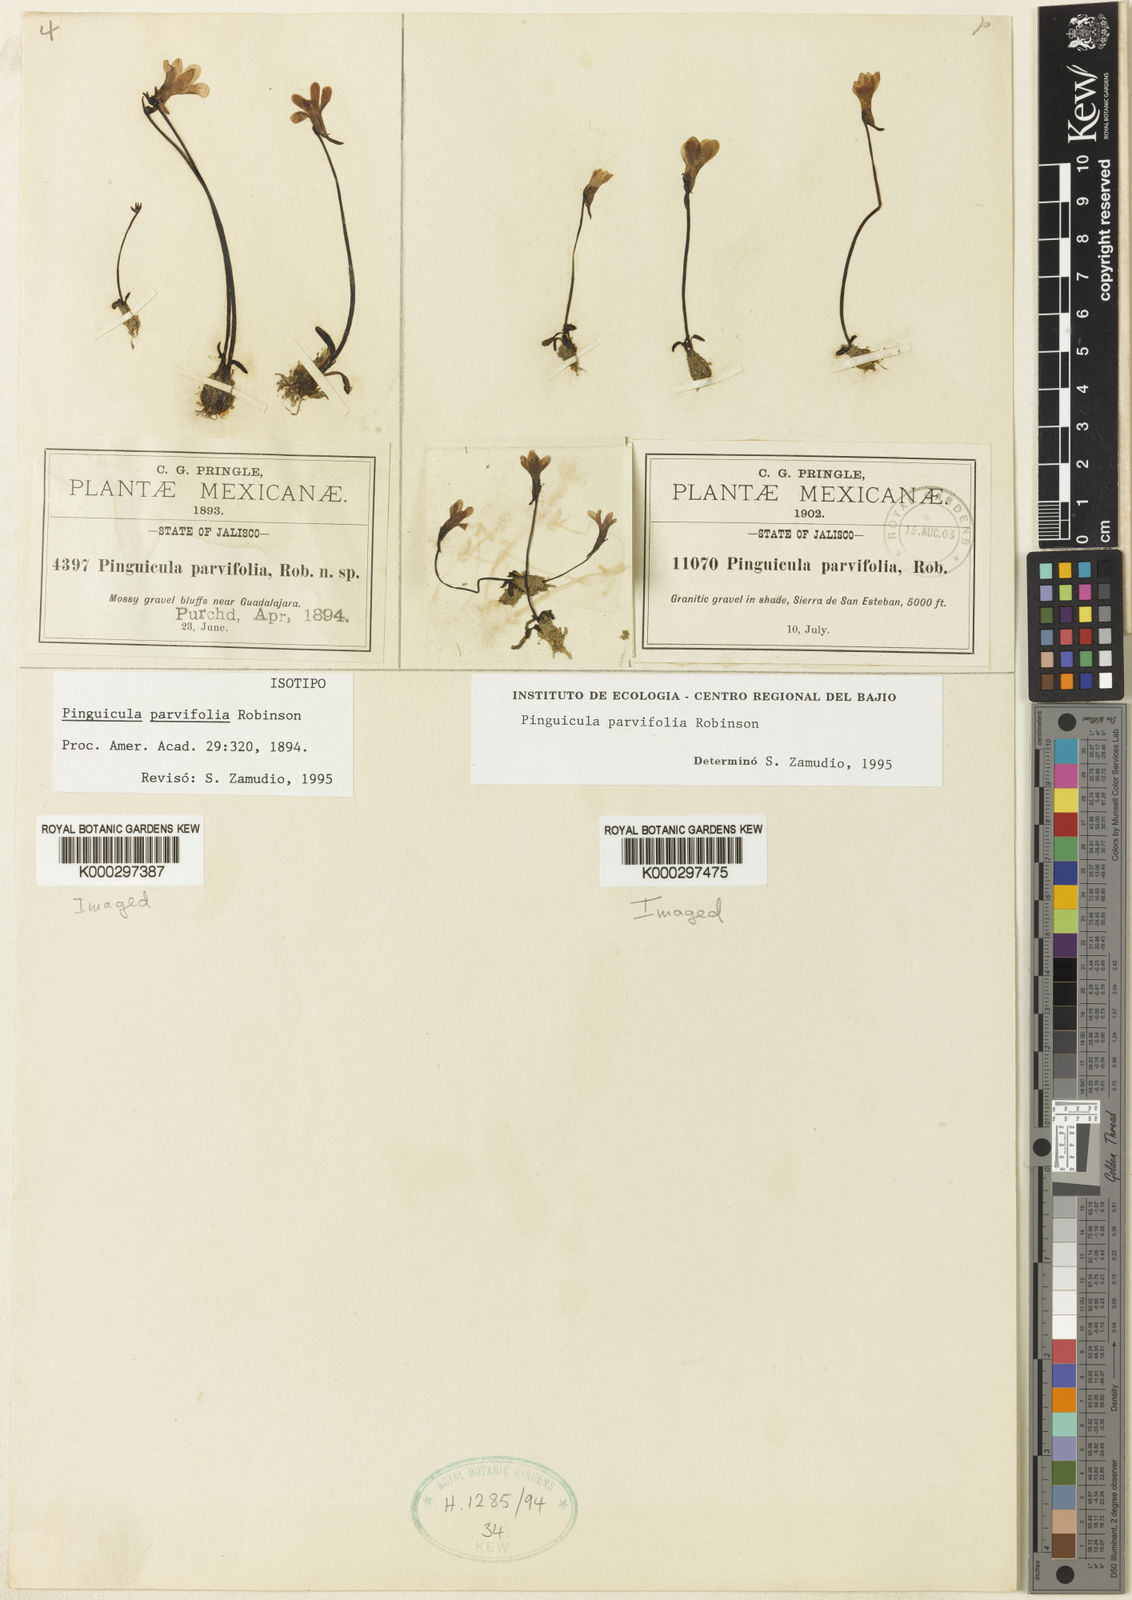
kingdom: Plantae
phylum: Tracheophyta
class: Magnoliopsida
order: Lamiales
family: Lentibulariaceae
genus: Pinguicula
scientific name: Pinguicula parvifolia
